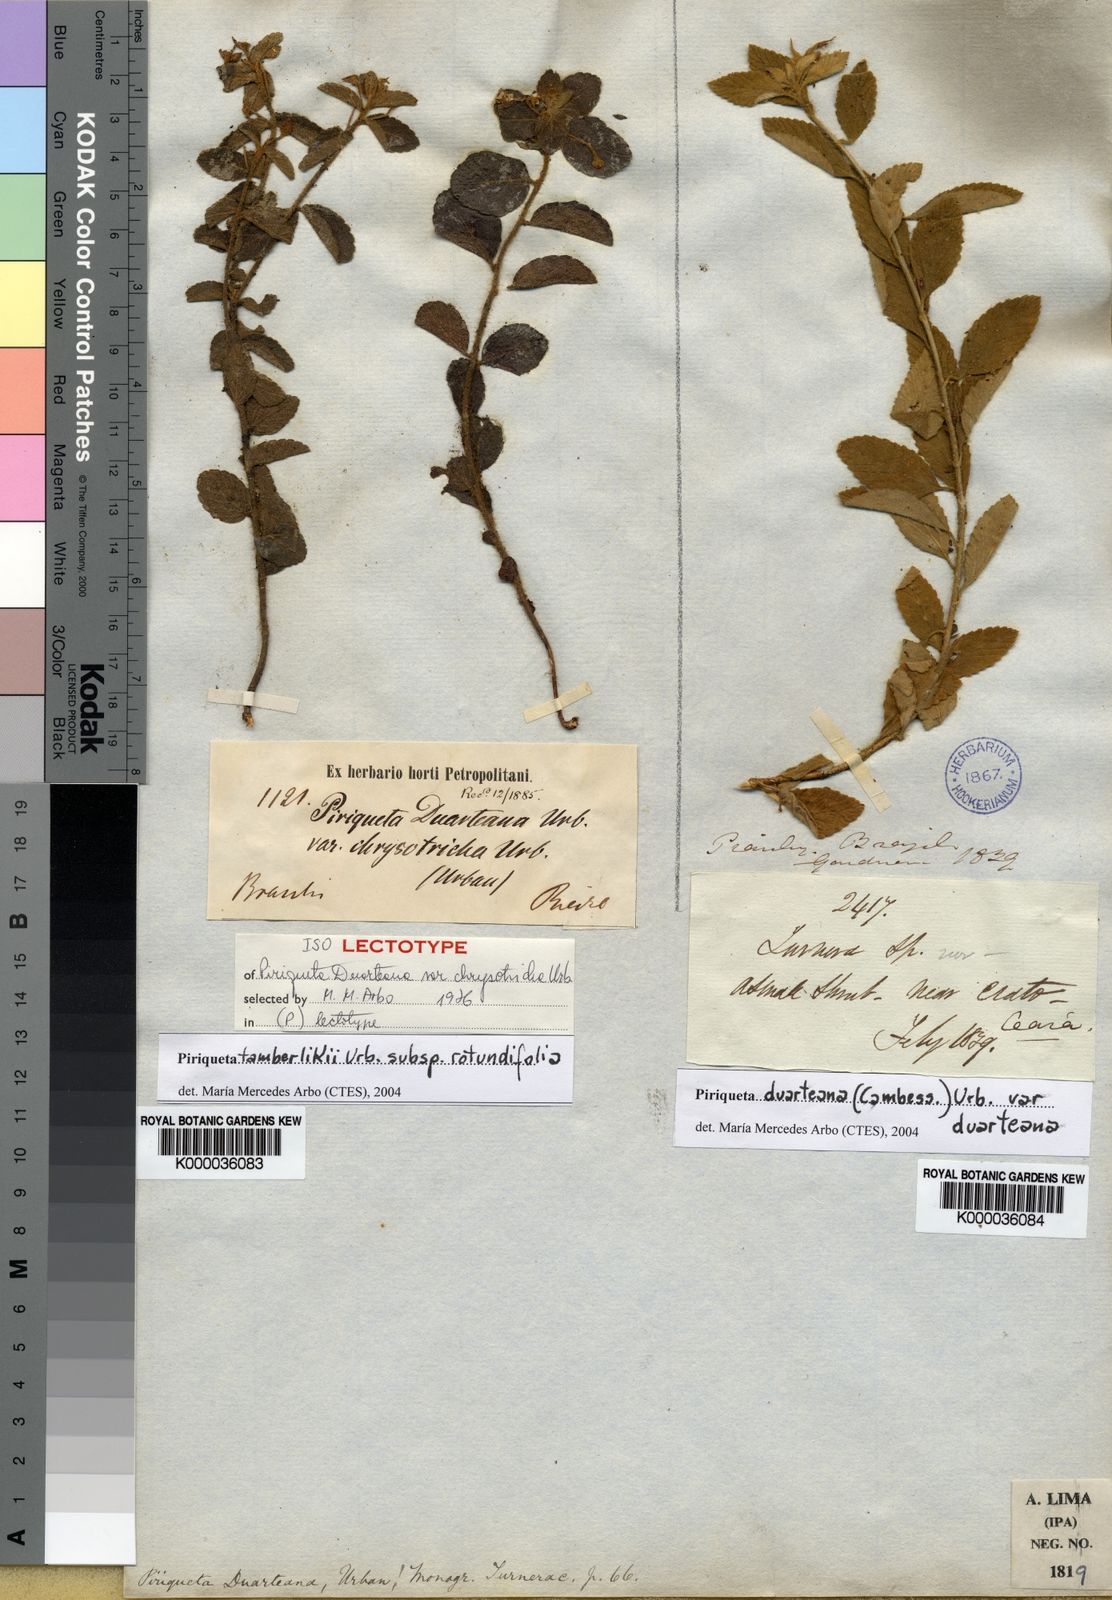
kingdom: Plantae
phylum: Tracheophyta
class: Magnoliopsida
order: Malpighiales
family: Turneraceae
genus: Piriqueta
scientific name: Piriqueta tamberlikii
